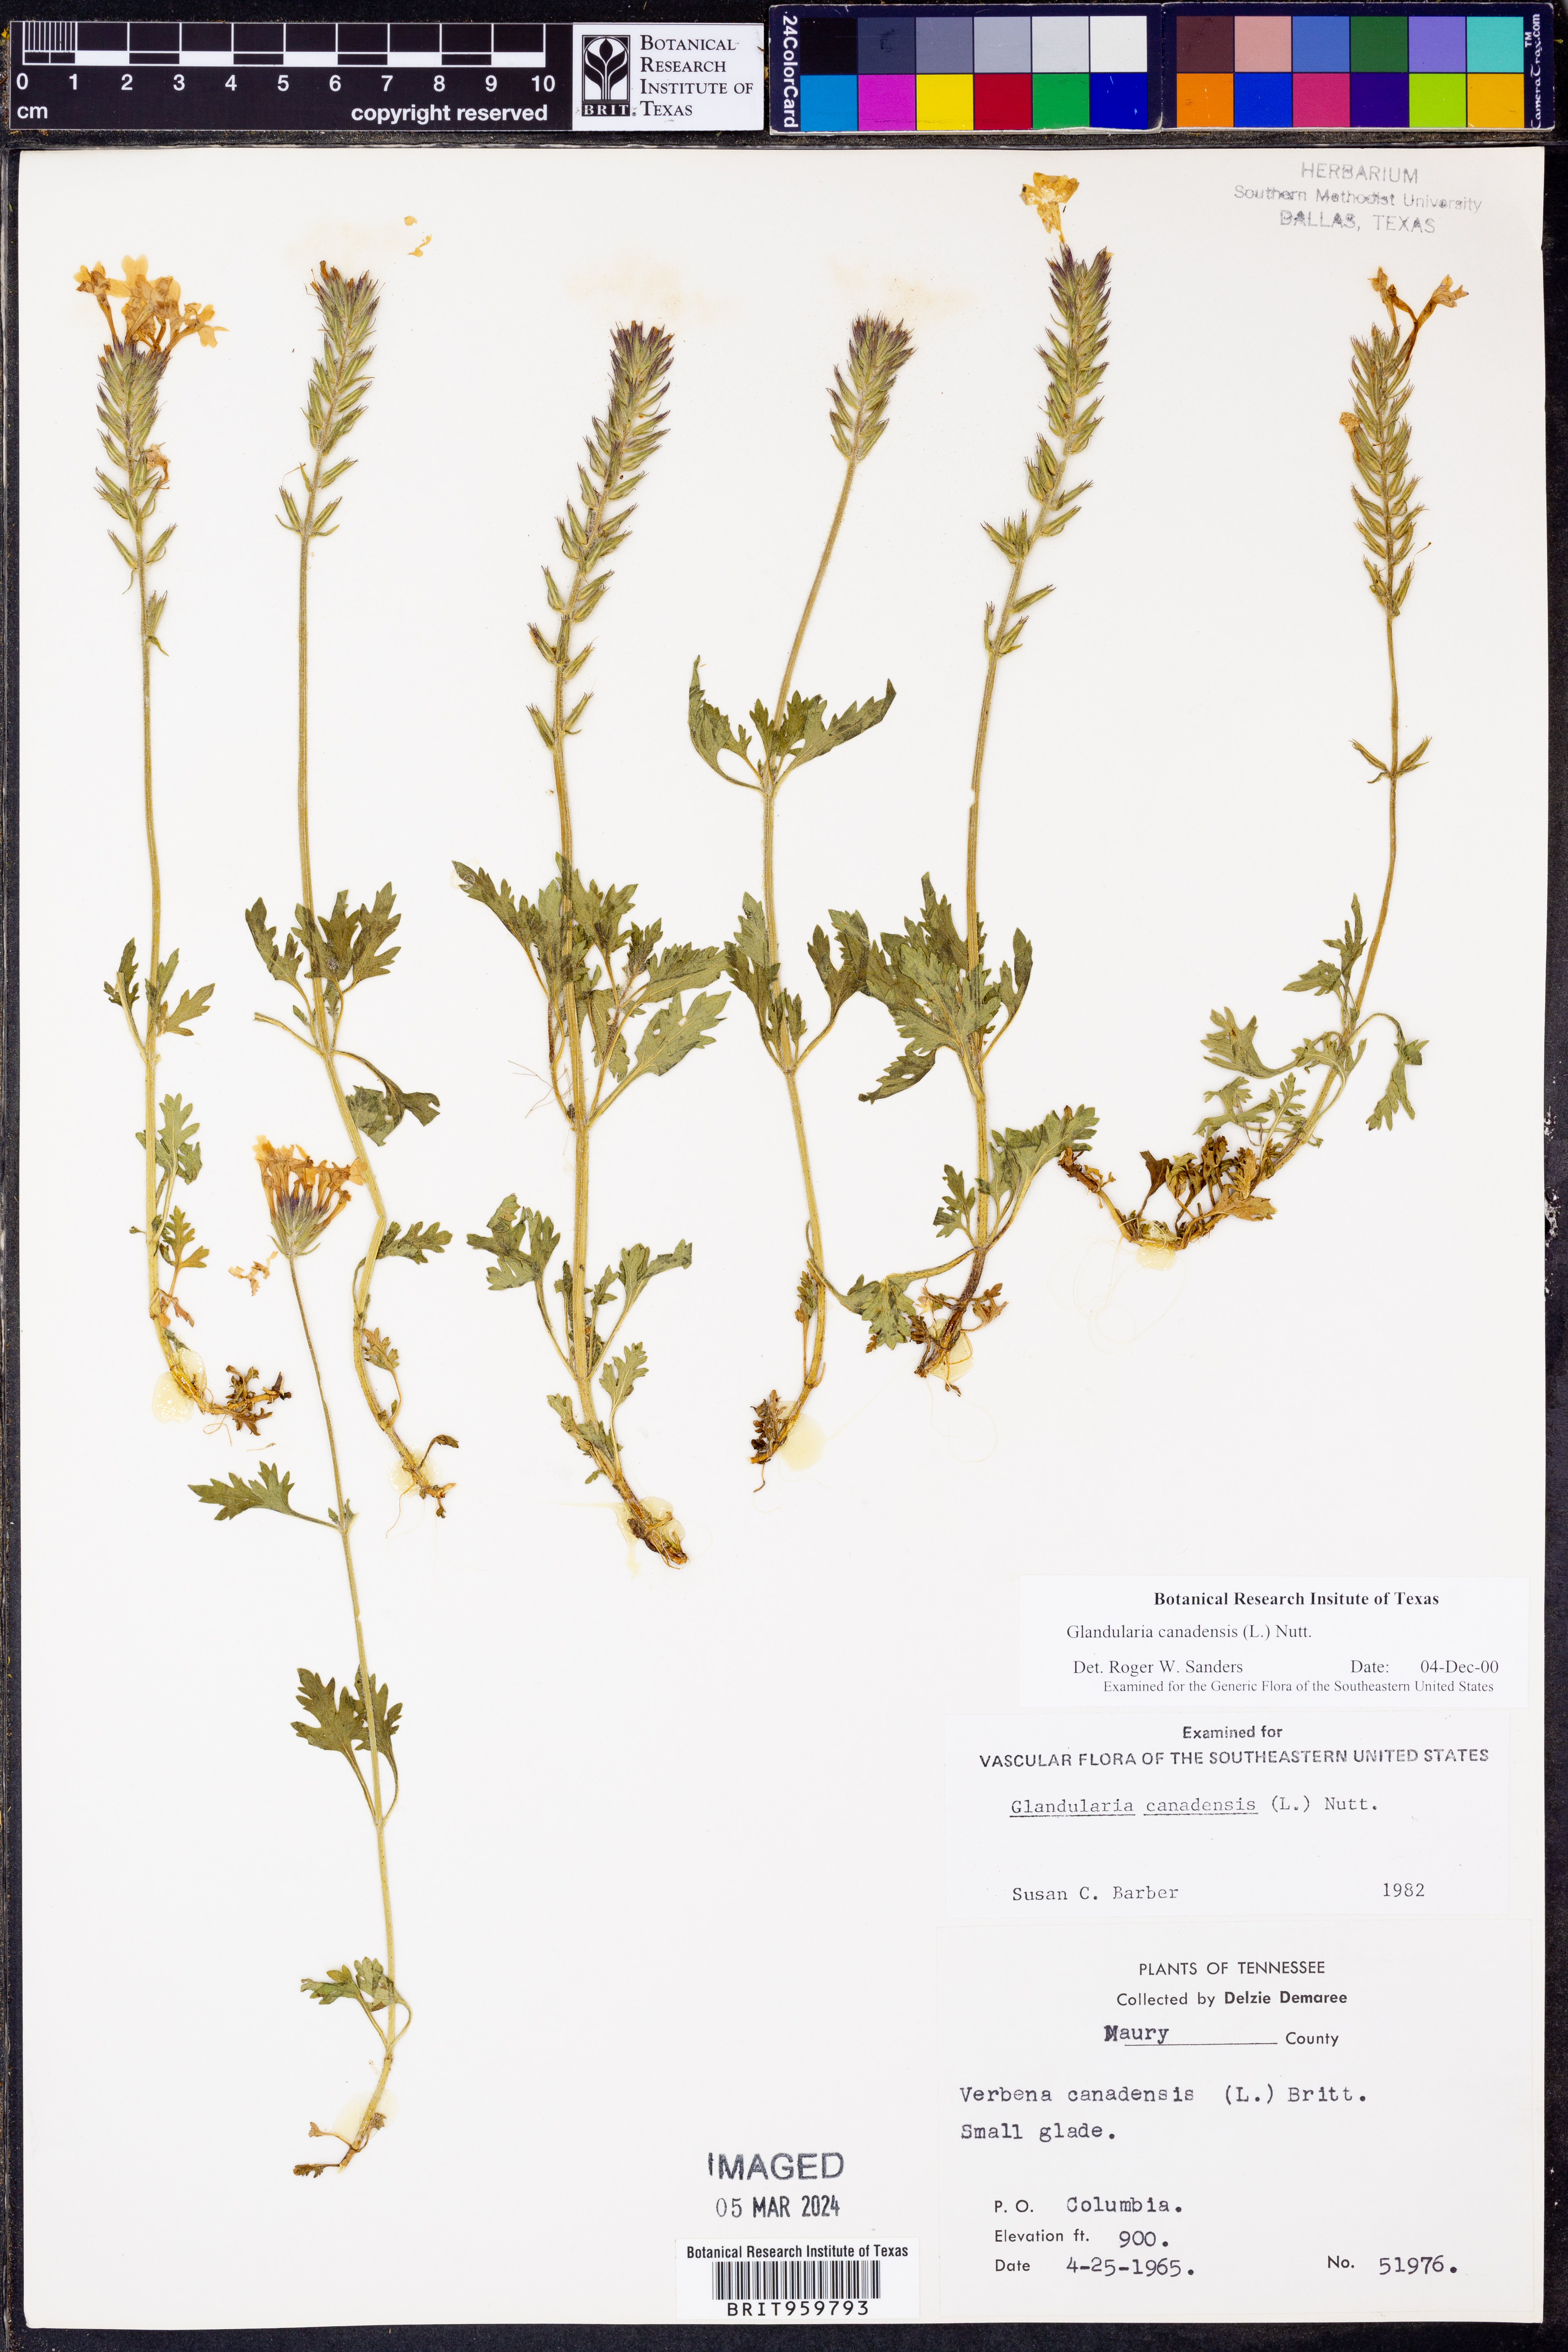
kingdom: Plantae
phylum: Tracheophyta
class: Magnoliopsida
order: Lamiales
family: Verbenaceae
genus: Verbena
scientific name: Verbena canadensis
